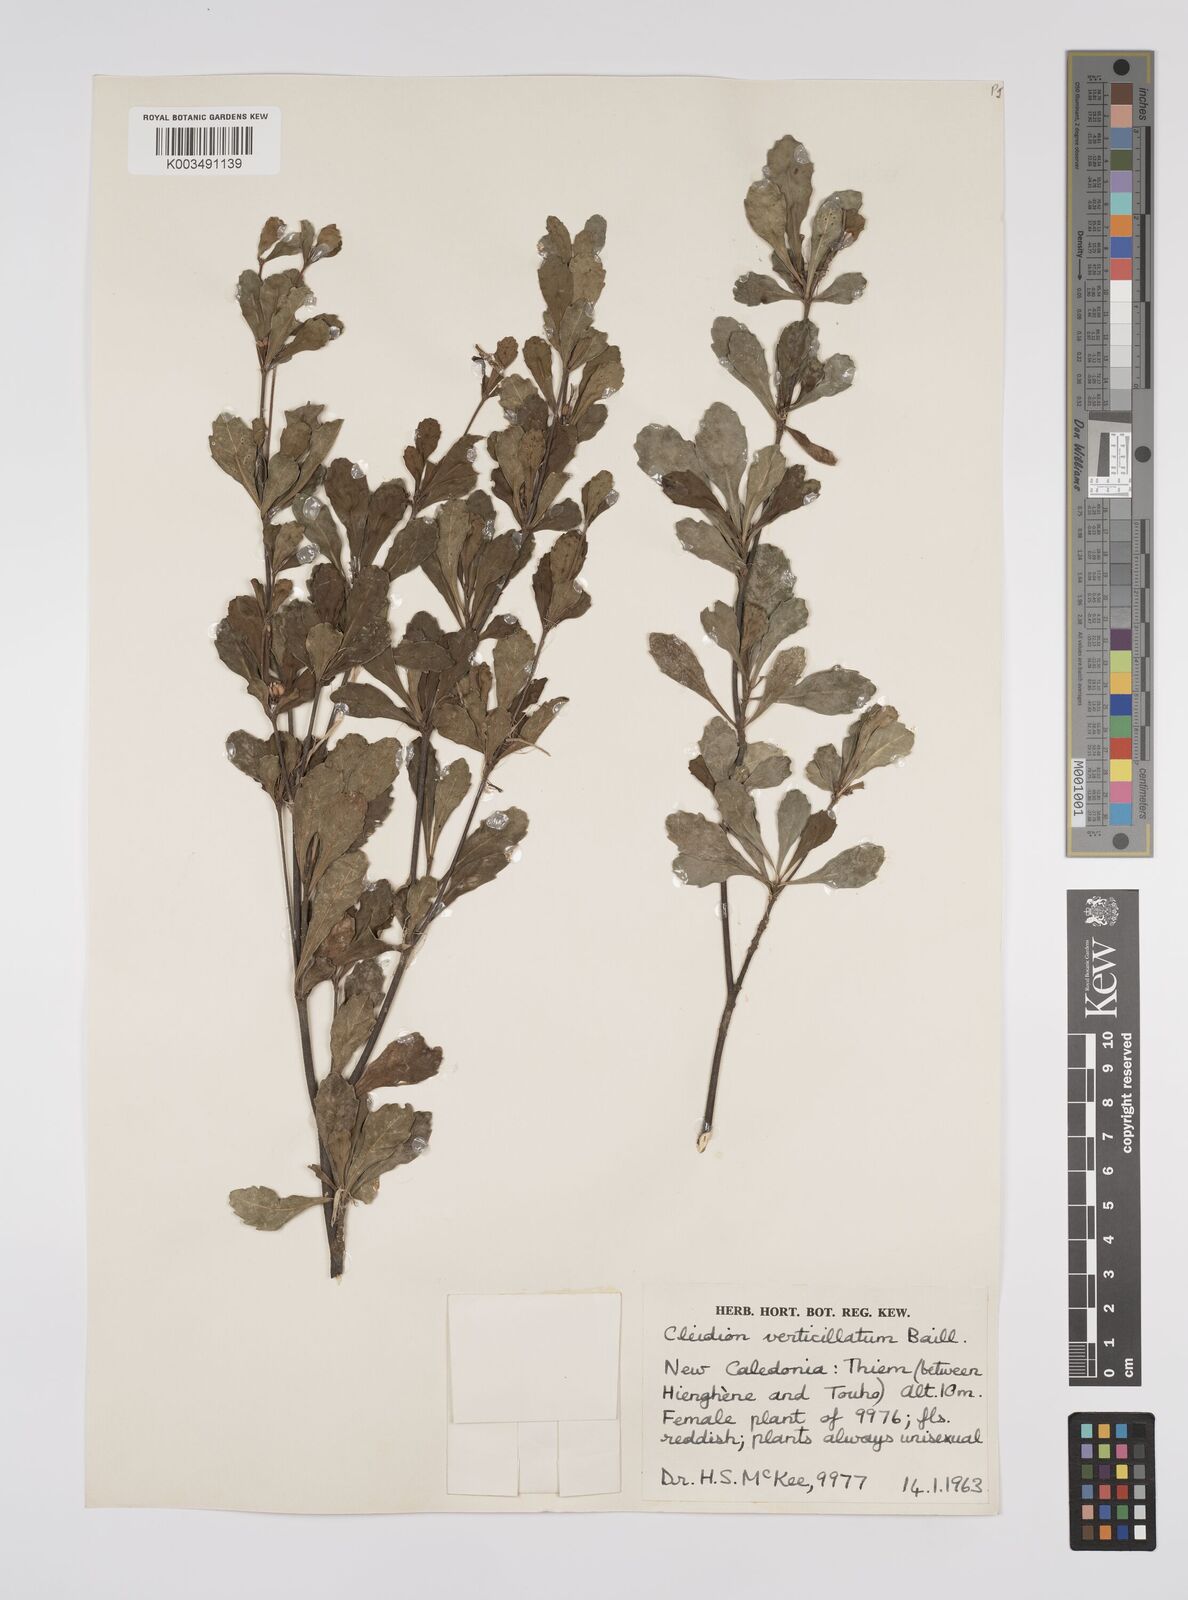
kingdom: Plantae
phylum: Tracheophyta
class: Magnoliopsida
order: Malpighiales
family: Euphorbiaceae
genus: Cleidion
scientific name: Cleidion verticillatum
